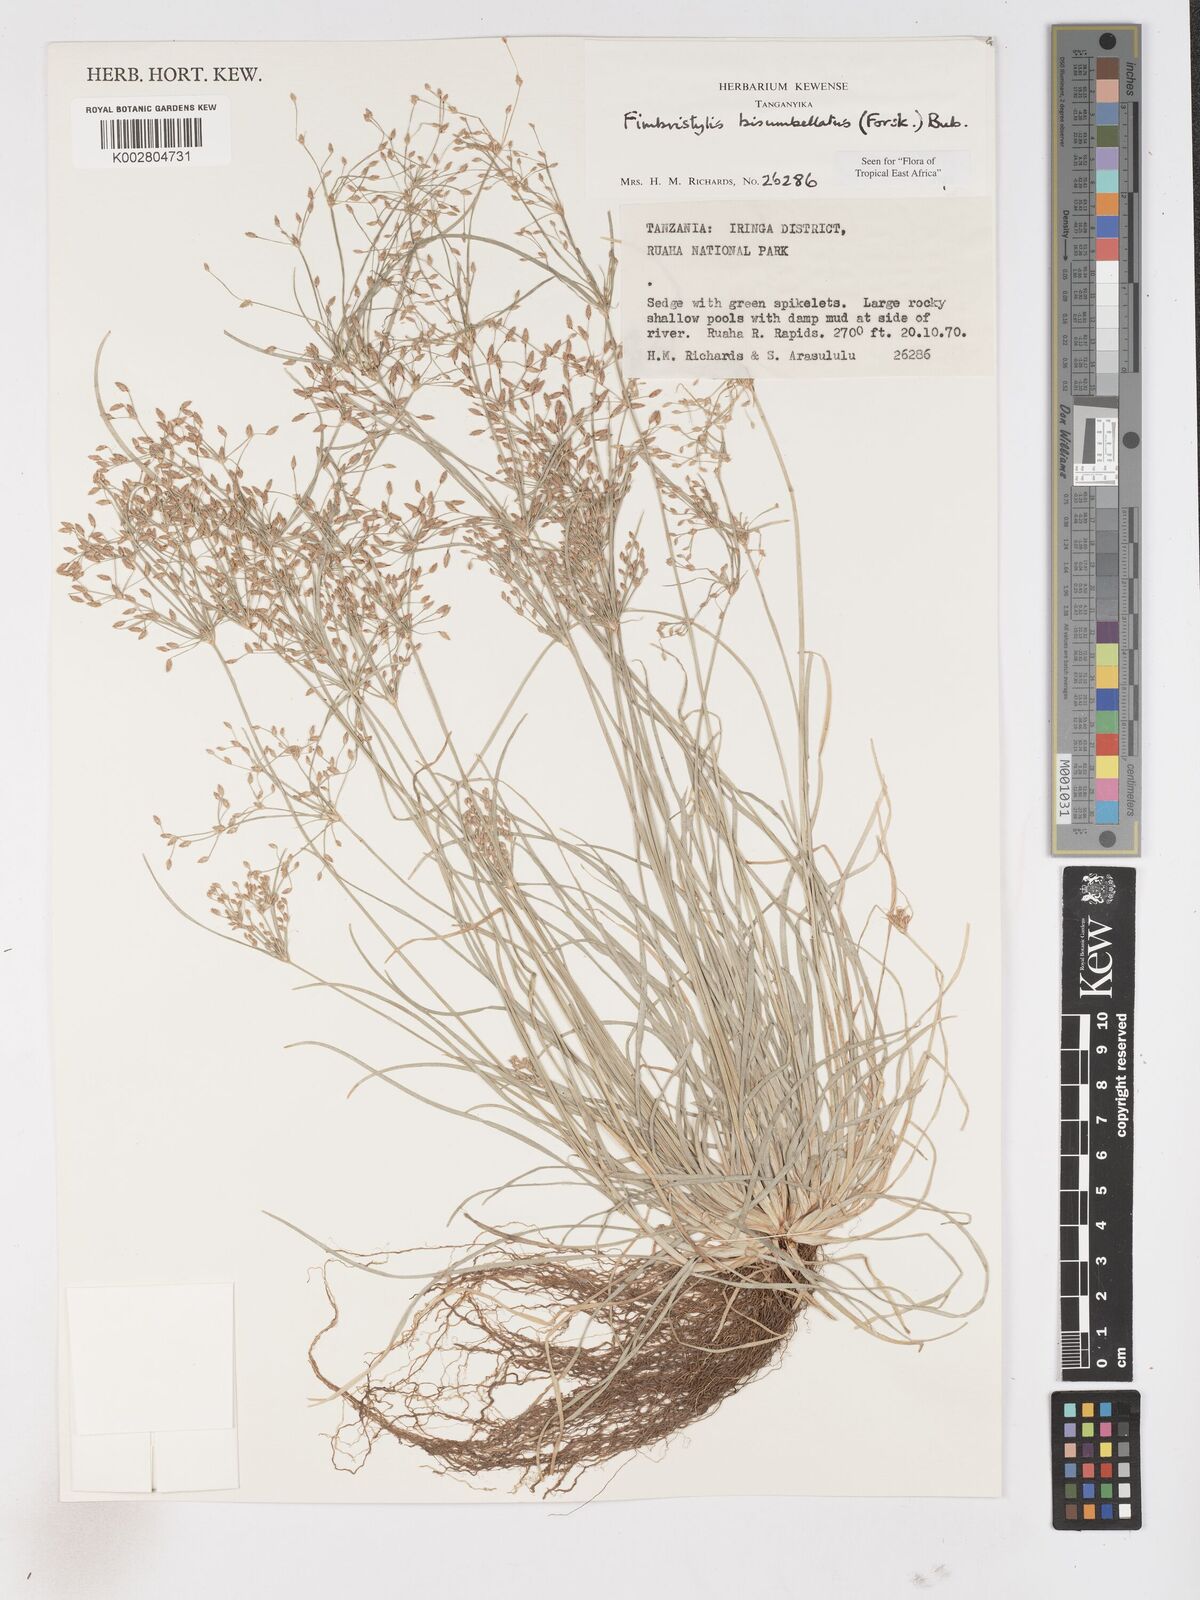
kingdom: Plantae
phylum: Tracheophyta
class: Liliopsida
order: Poales
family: Cyperaceae
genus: Fimbristylis
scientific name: Fimbristylis bisumbellata
